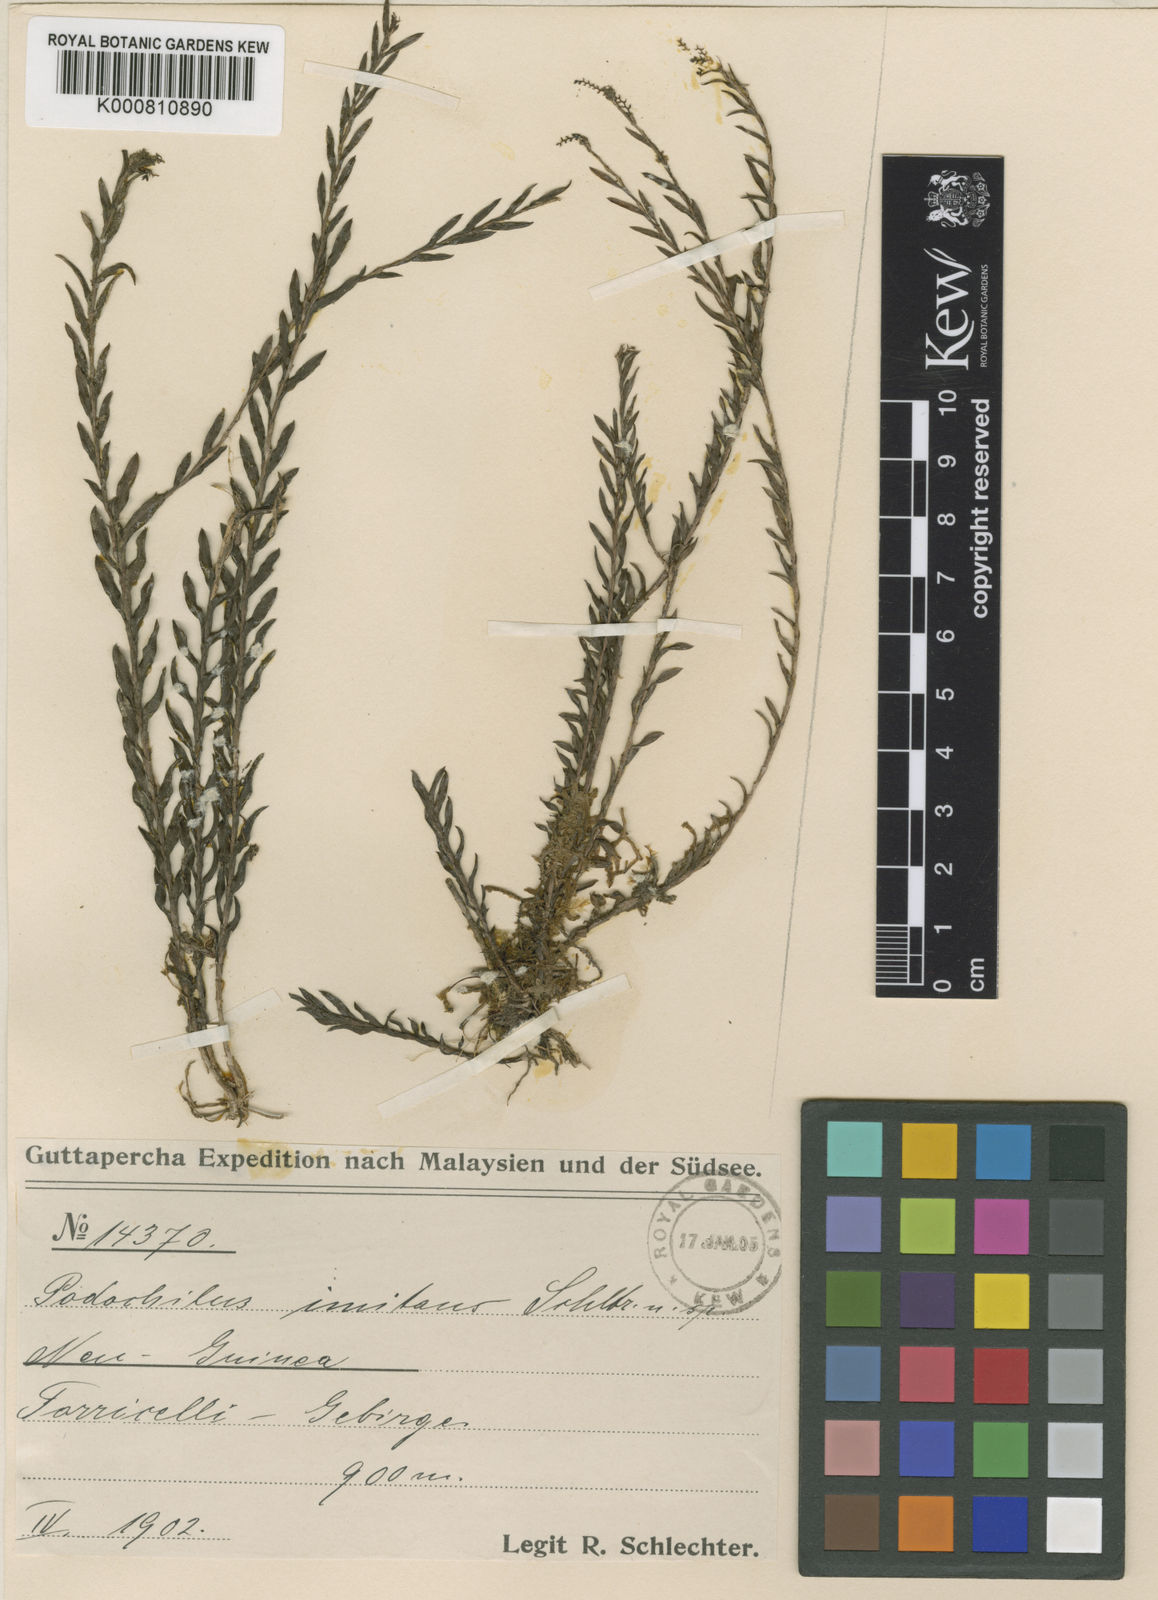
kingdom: Plantae
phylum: Tracheophyta
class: Liliopsida
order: Asparagales
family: Orchidaceae
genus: Podochilus
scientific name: Podochilus intricatus
